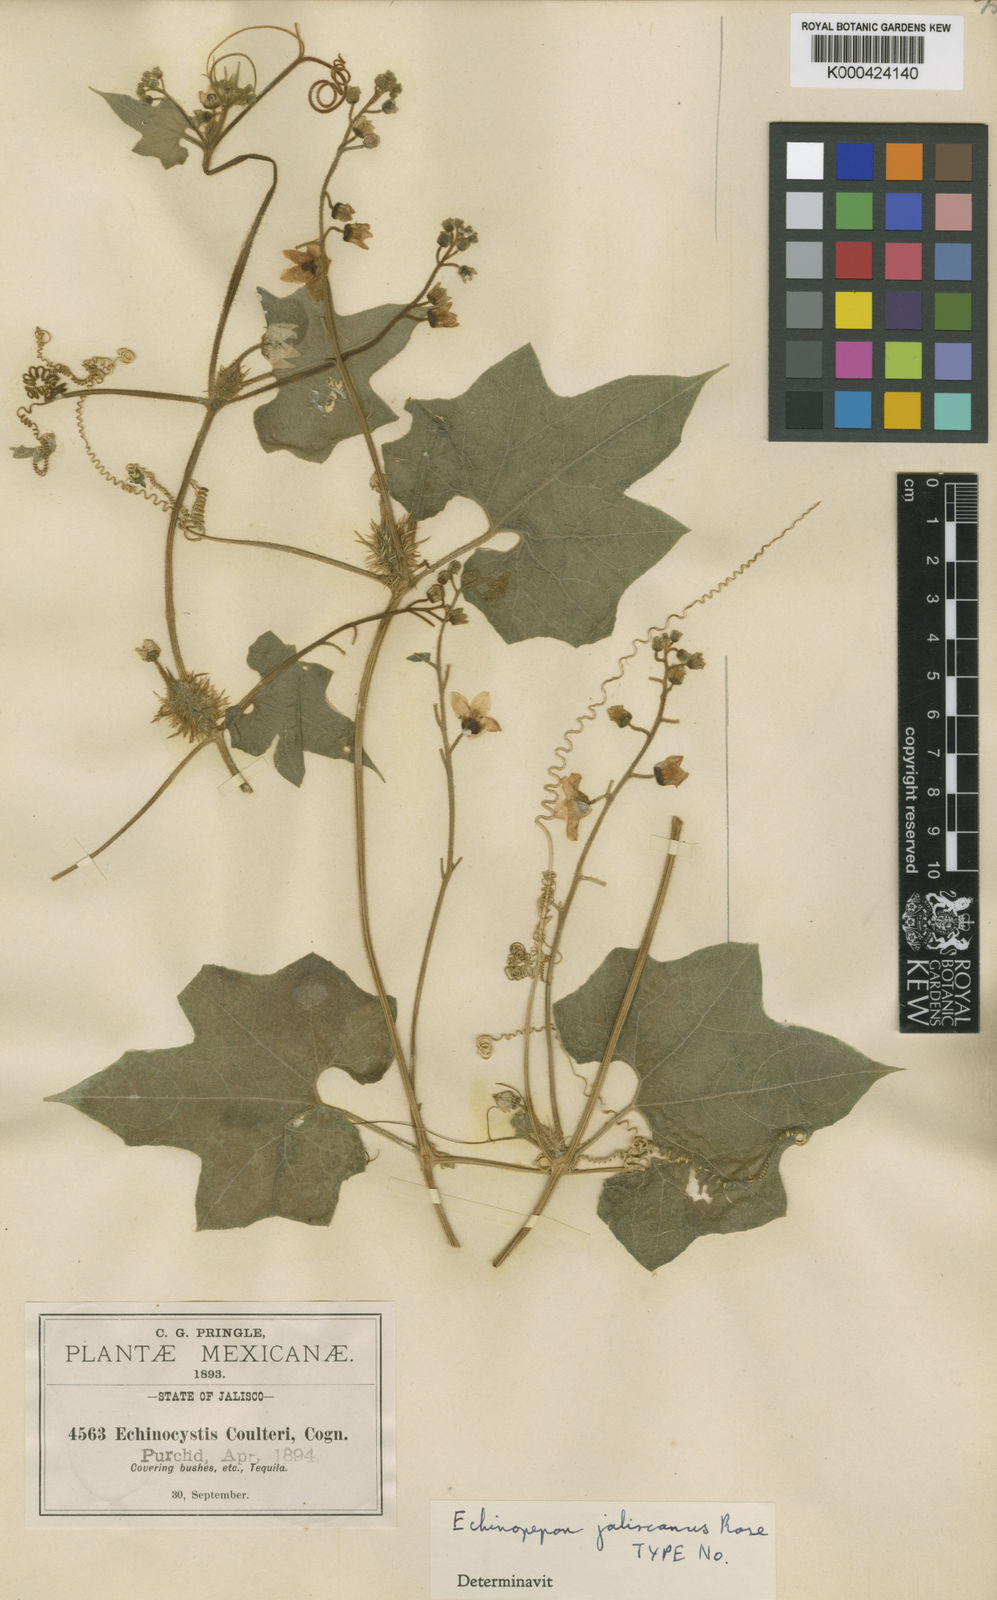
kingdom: Plantae
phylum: Tracheophyta
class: Magnoliopsida
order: Cucurbitales
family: Cucurbitaceae
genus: Echinopepon
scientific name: Echinopepon jaliscanus
